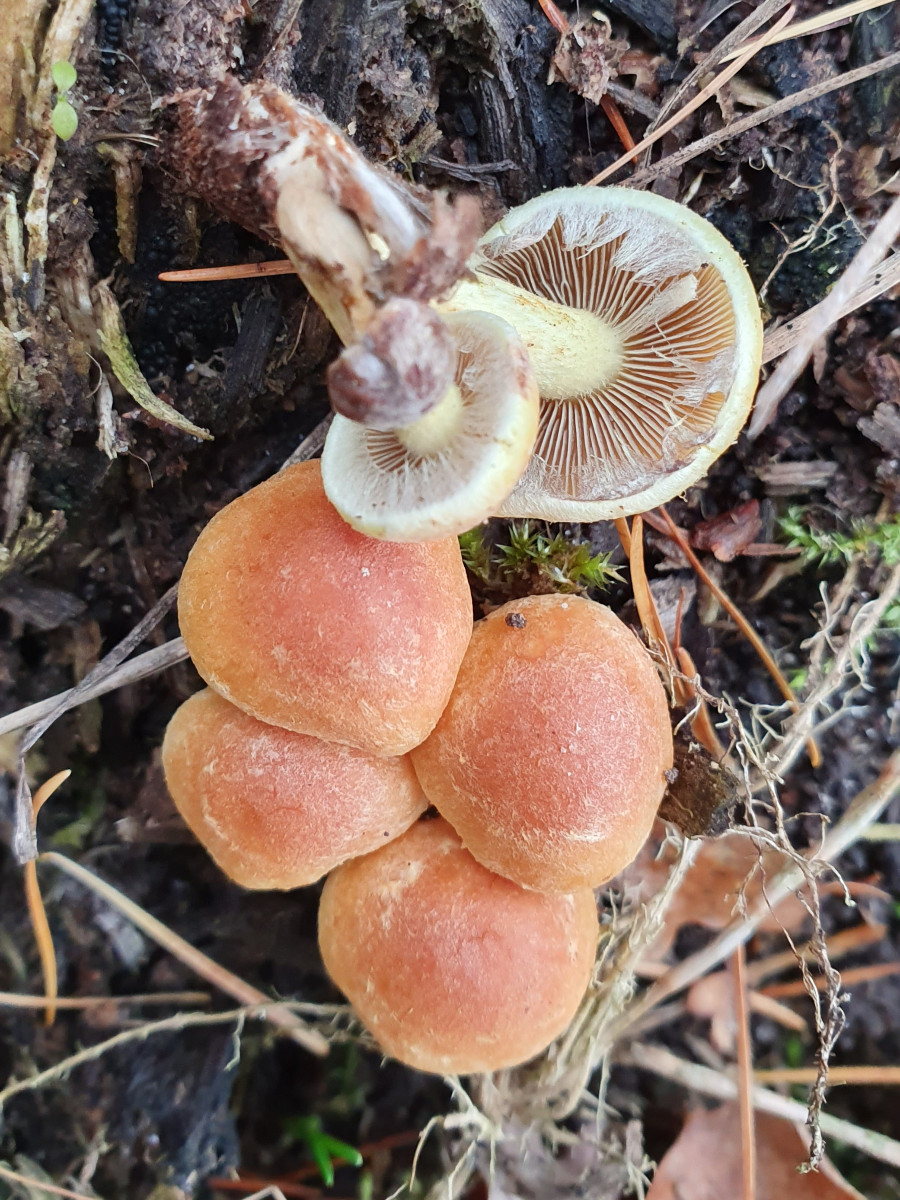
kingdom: Fungi
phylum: Basidiomycota
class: Agaricomycetes
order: Agaricales
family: Strophariaceae
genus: Hypholoma
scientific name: Hypholoma lateritium
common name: teglrød svovlhat
